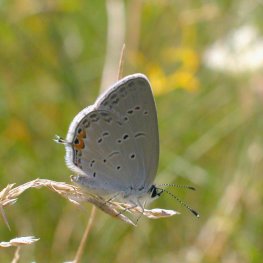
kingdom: Animalia
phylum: Arthropoda
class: Insecta
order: Lepidoptera
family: Lycaenidae
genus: Elkalyce
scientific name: Elkalyce comyntas
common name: Eastern Tailed-Blue
